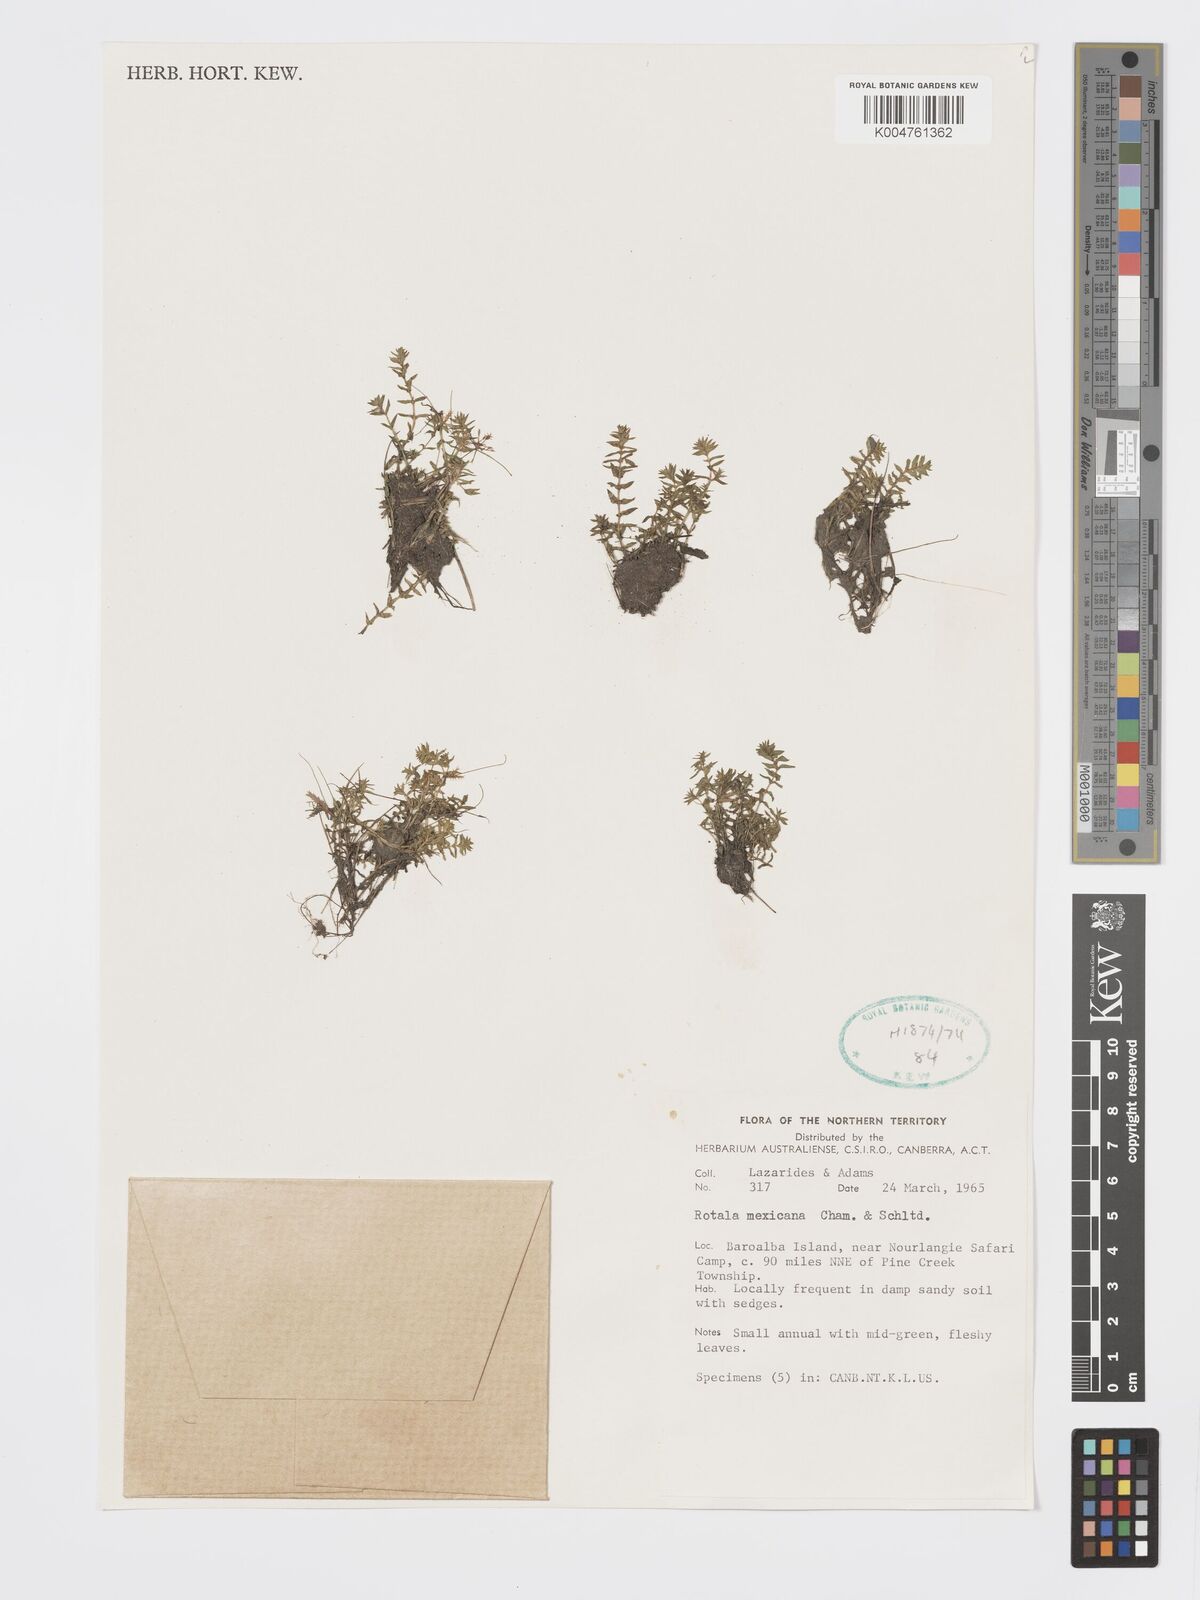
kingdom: Plantae
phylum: Tracheophyta
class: Magnoliopsida
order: Myrtales
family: Lythraceae
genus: Rotala
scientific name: Rotala mexicana
